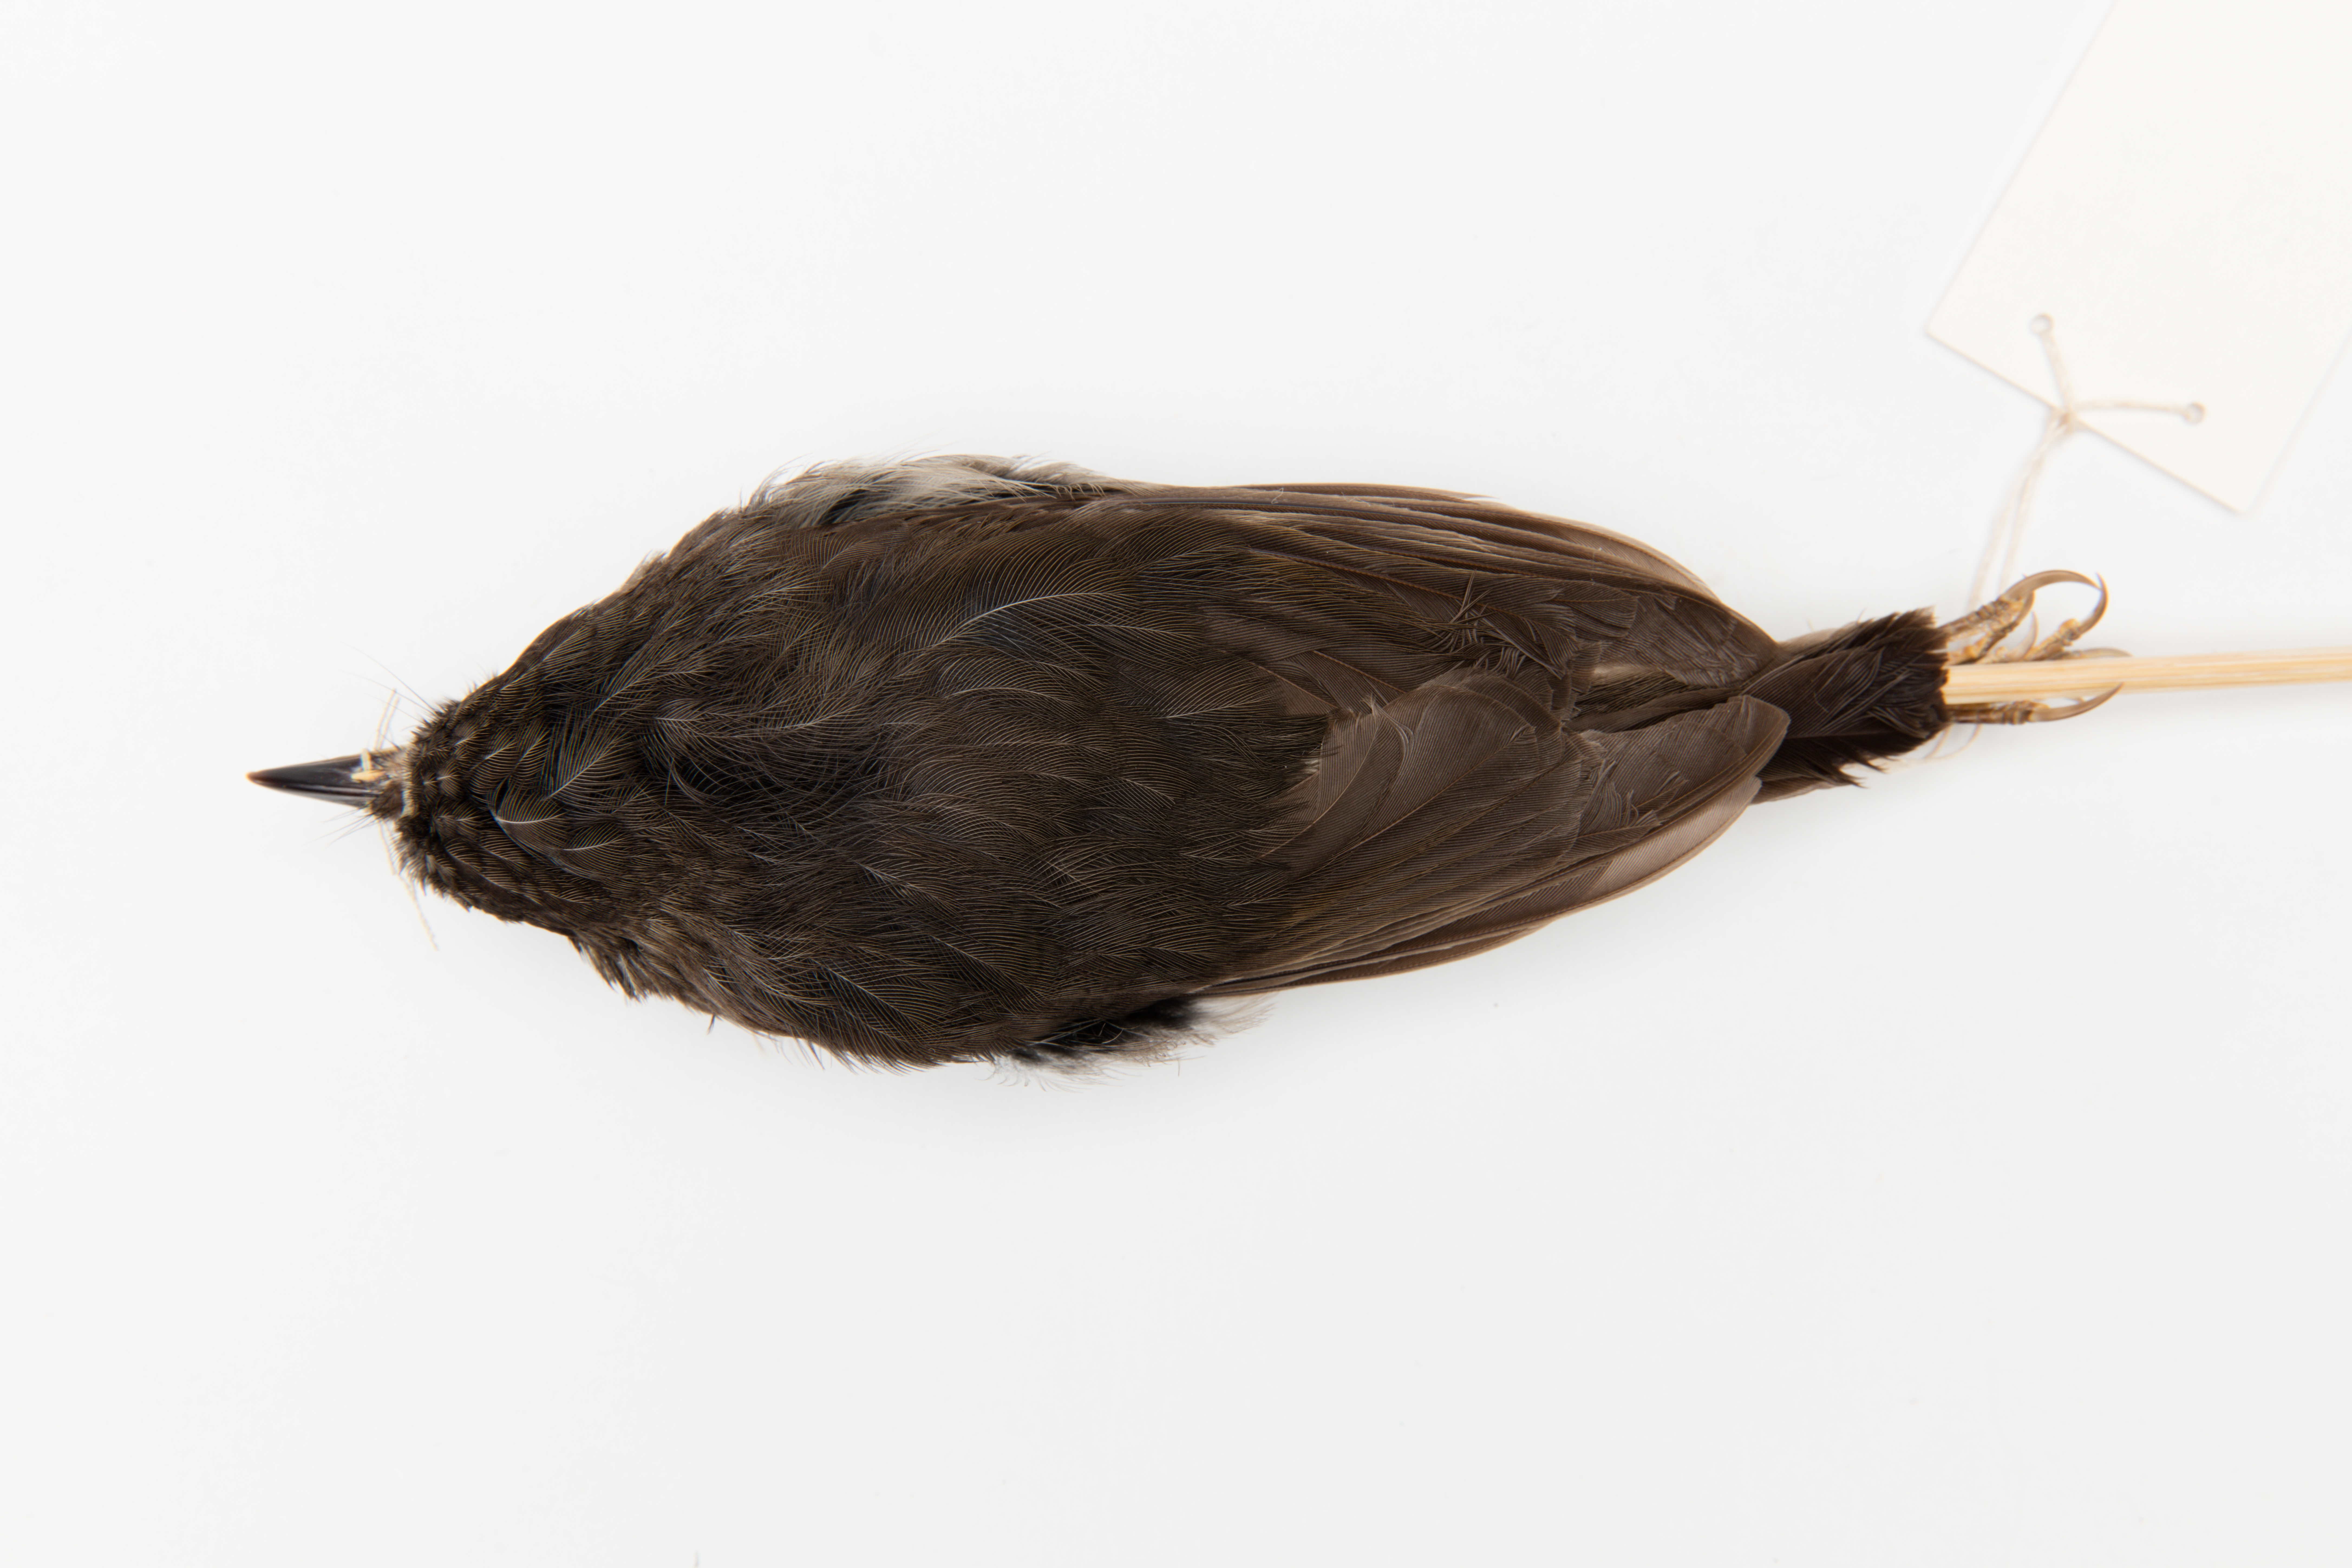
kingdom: Animalia
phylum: Chordata
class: Aves
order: Passeriformes
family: Petroicidae
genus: Petroica
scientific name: Petroica australis
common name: New zealand robin
